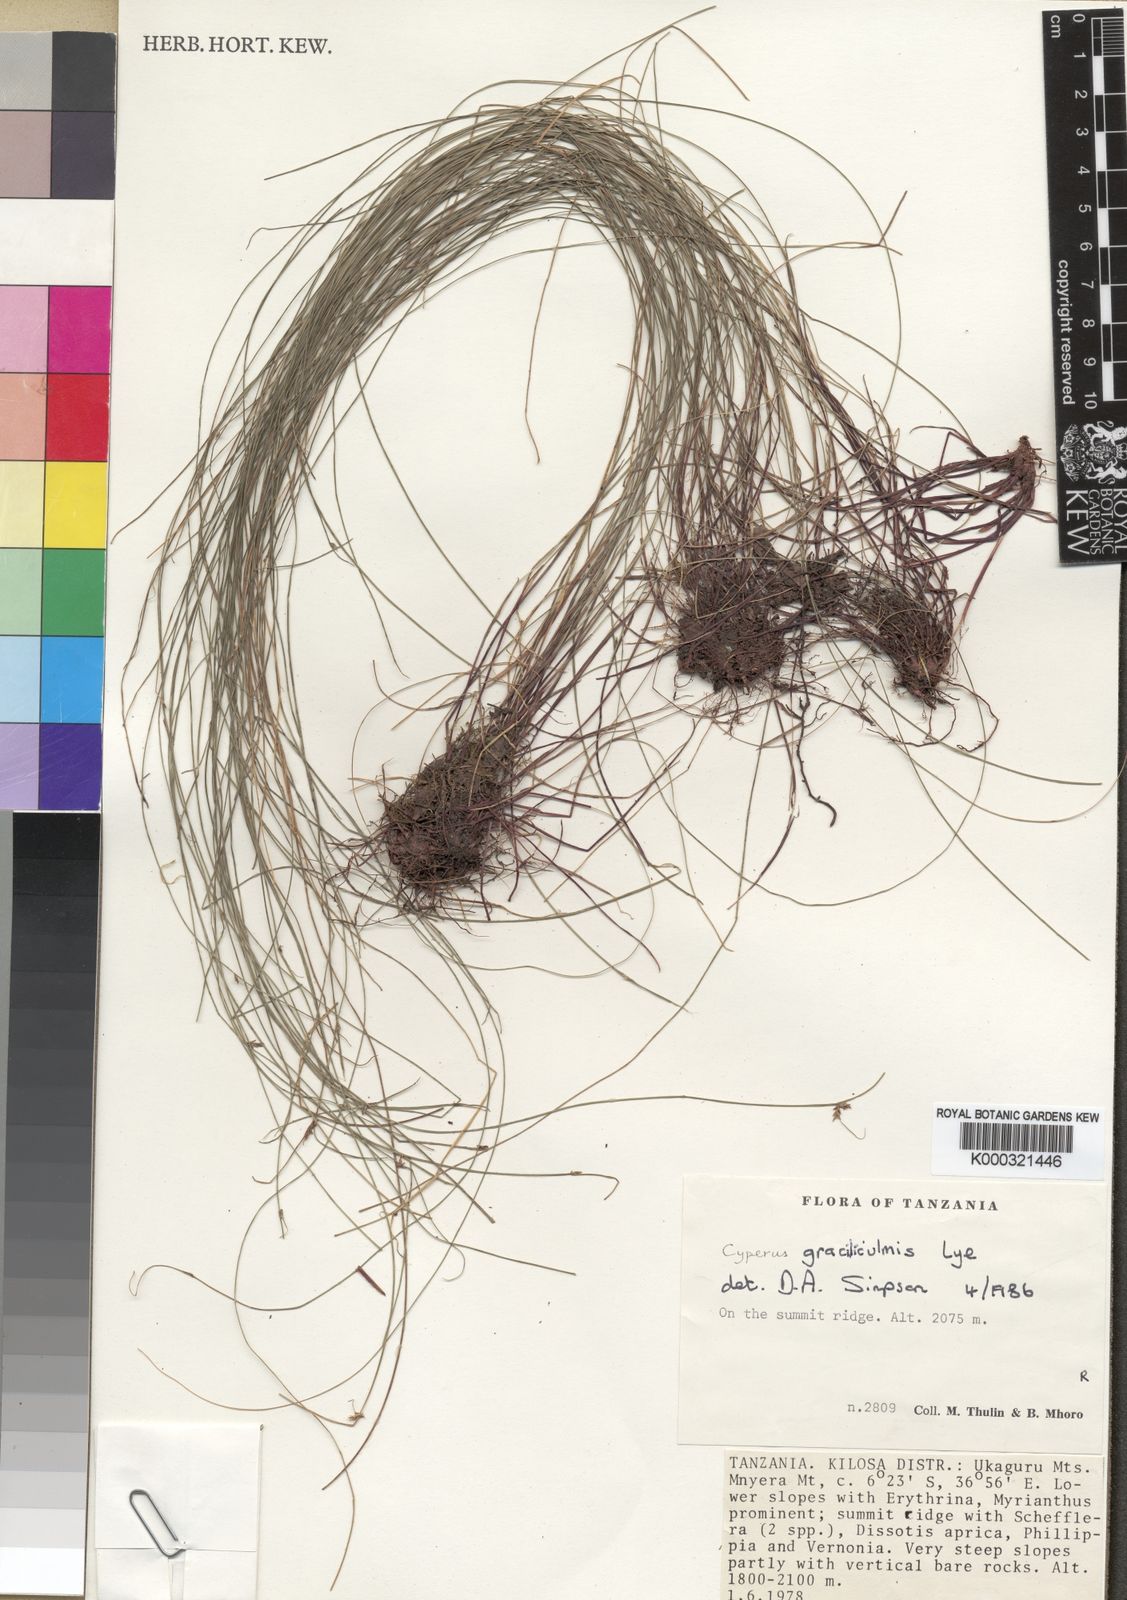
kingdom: Plantae
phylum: Tracheophyta
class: Liliopsida
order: Poales
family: Cyperaceae
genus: Cyperus
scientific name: Cyperus graciliculmis
